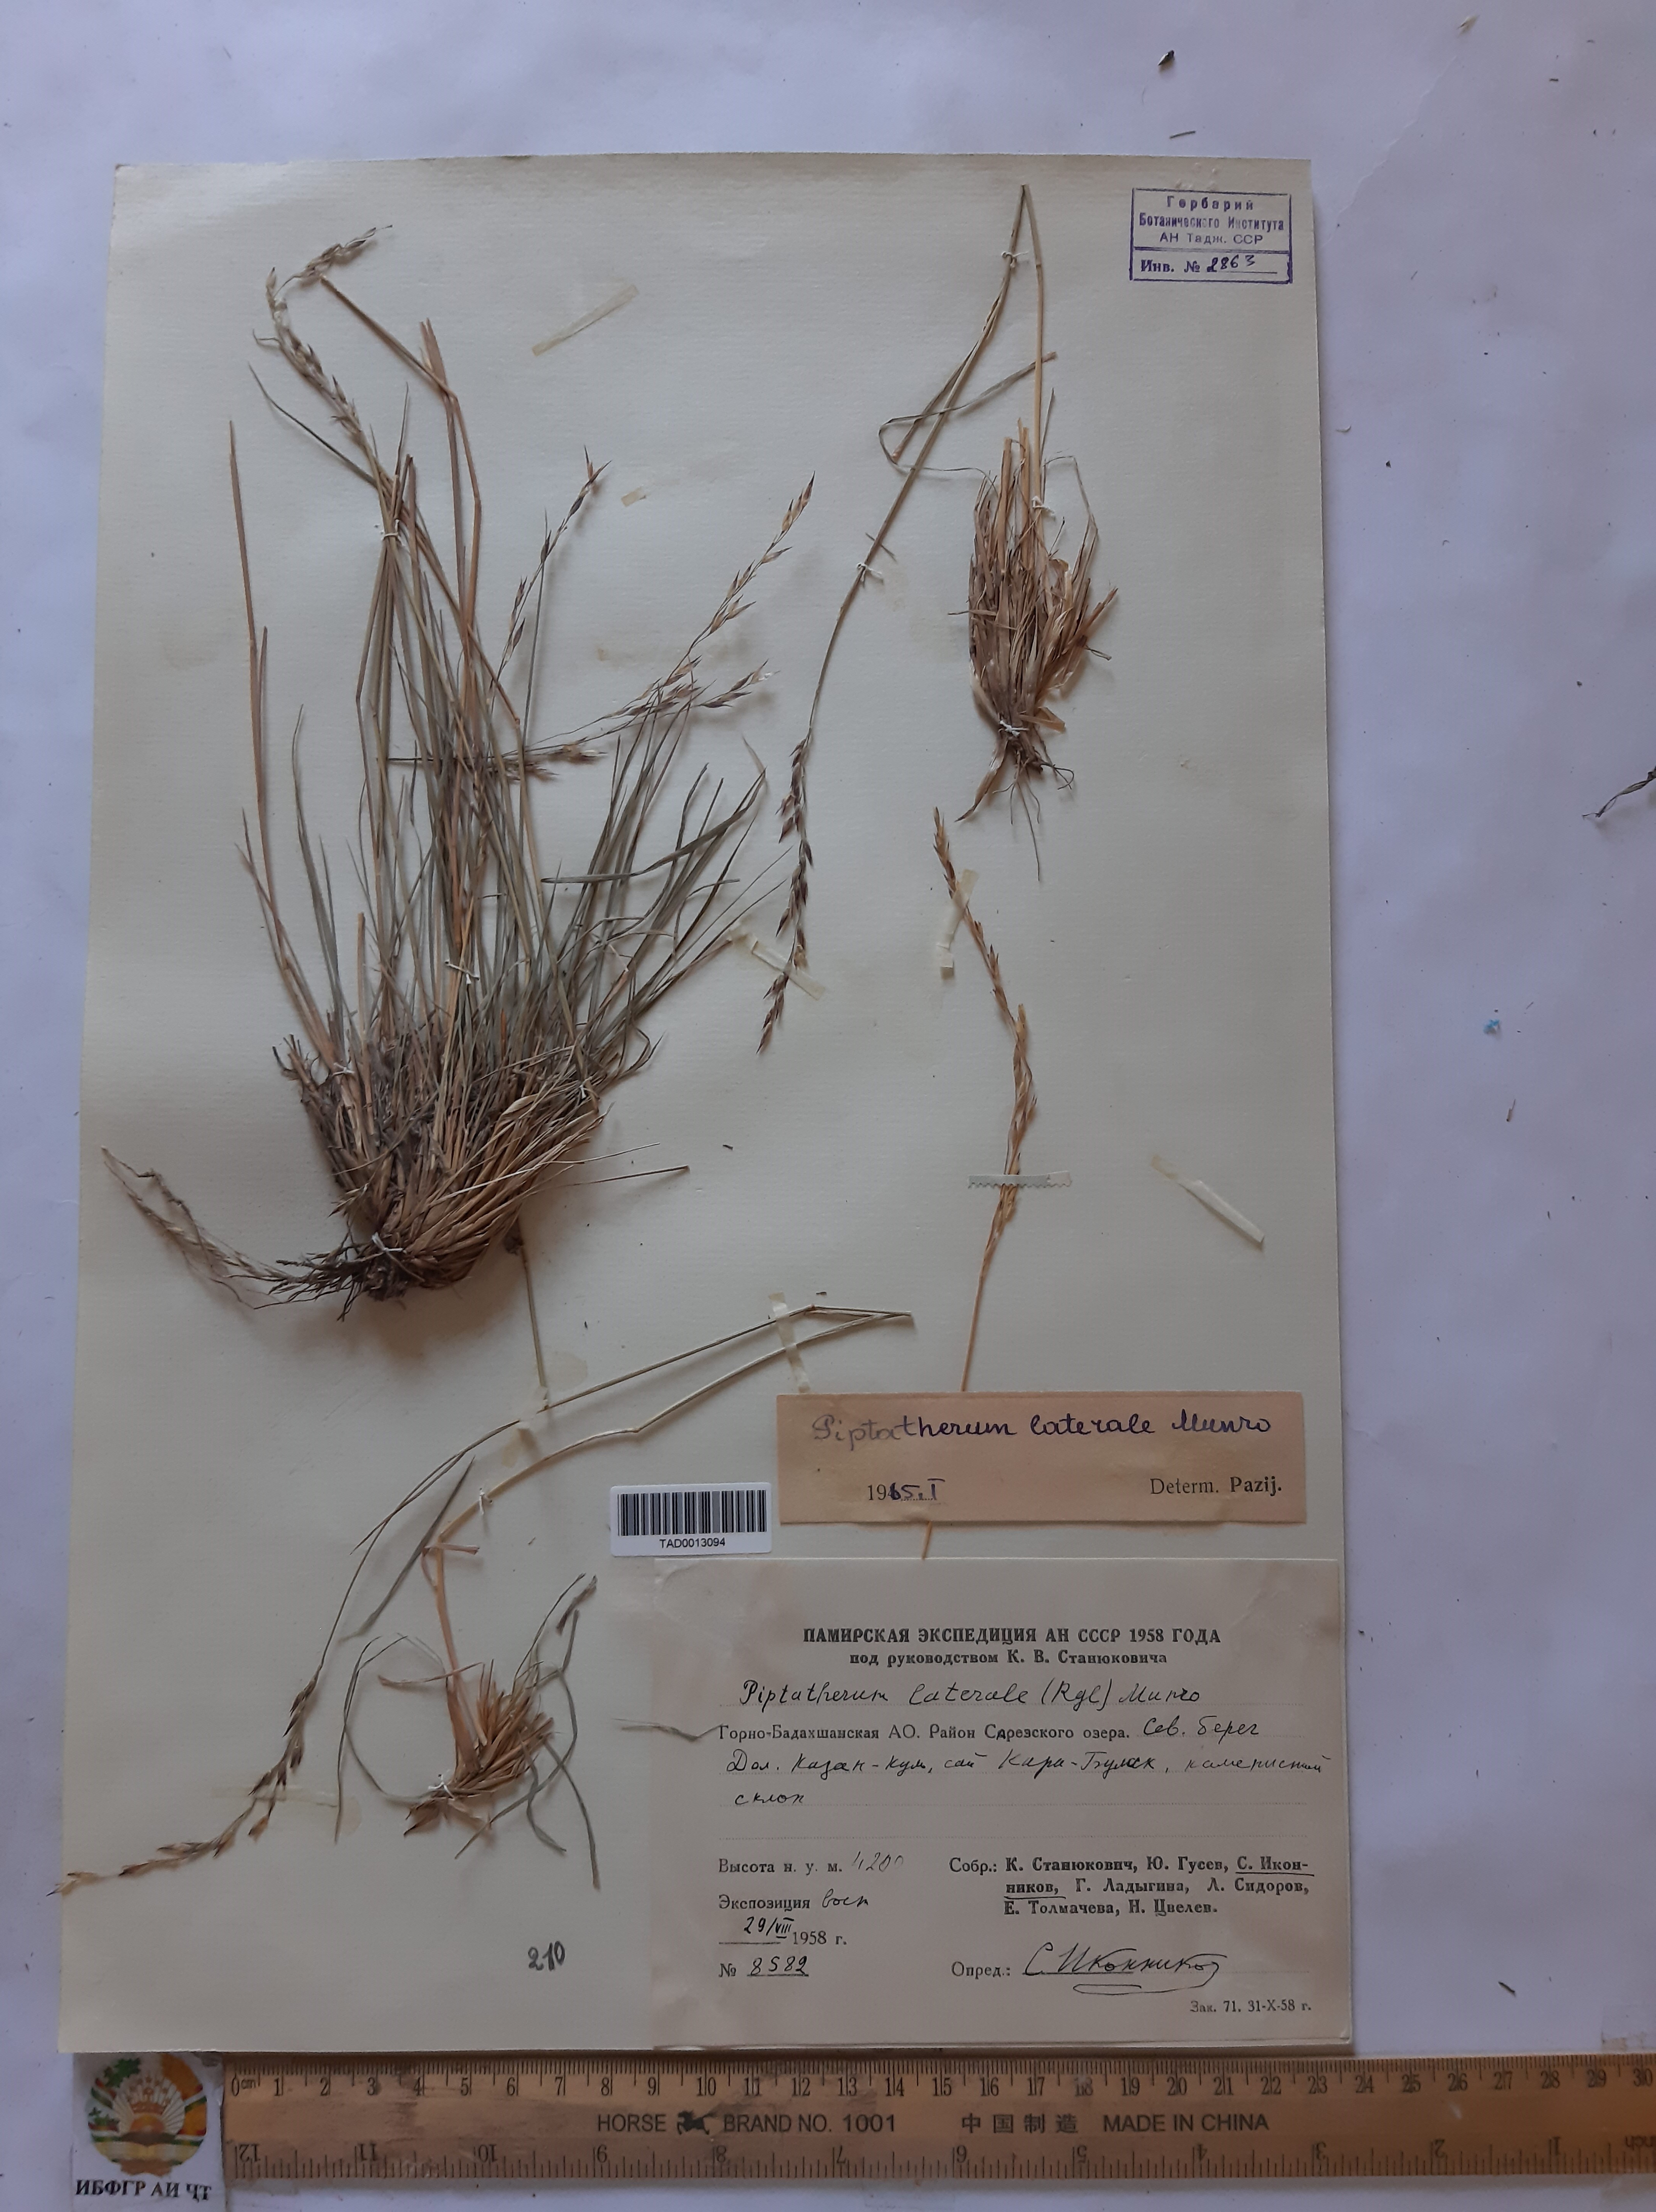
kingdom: Plantae
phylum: Tracheophyta
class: Liliopsida
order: Poales
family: Poaceae
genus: Piptatherum
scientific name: Piptatherum laterale
